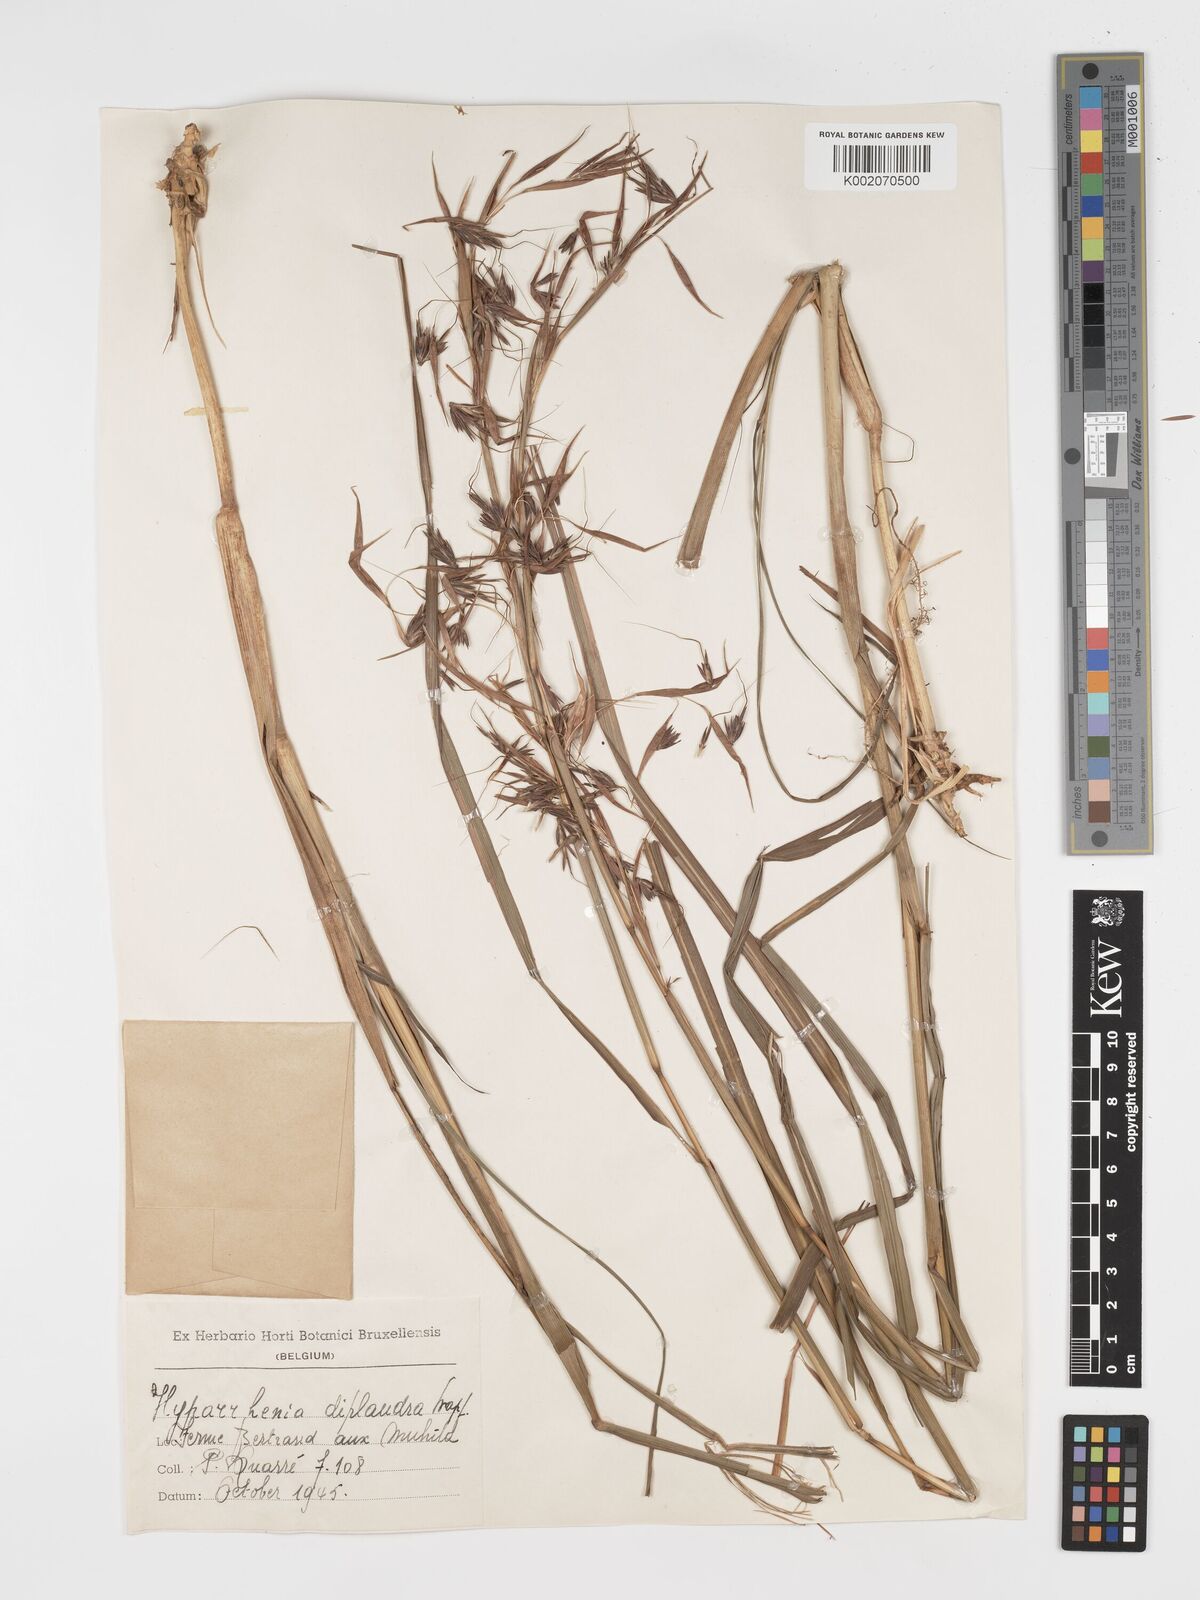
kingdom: Plantae
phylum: Tracheophyta
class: Liliopsida
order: Poales
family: Poaceae
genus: Hyparrhenia
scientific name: Hyparrhenia diplandra
